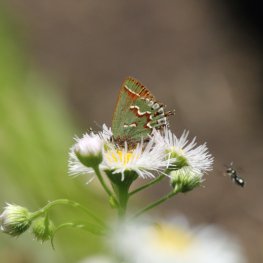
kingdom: Animalia
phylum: Arthropoda
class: Insecta
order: Lepidoptera
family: Lycaenidae
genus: Mitoura
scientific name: Mitoura gryneus
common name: Juniper Hairstreak
